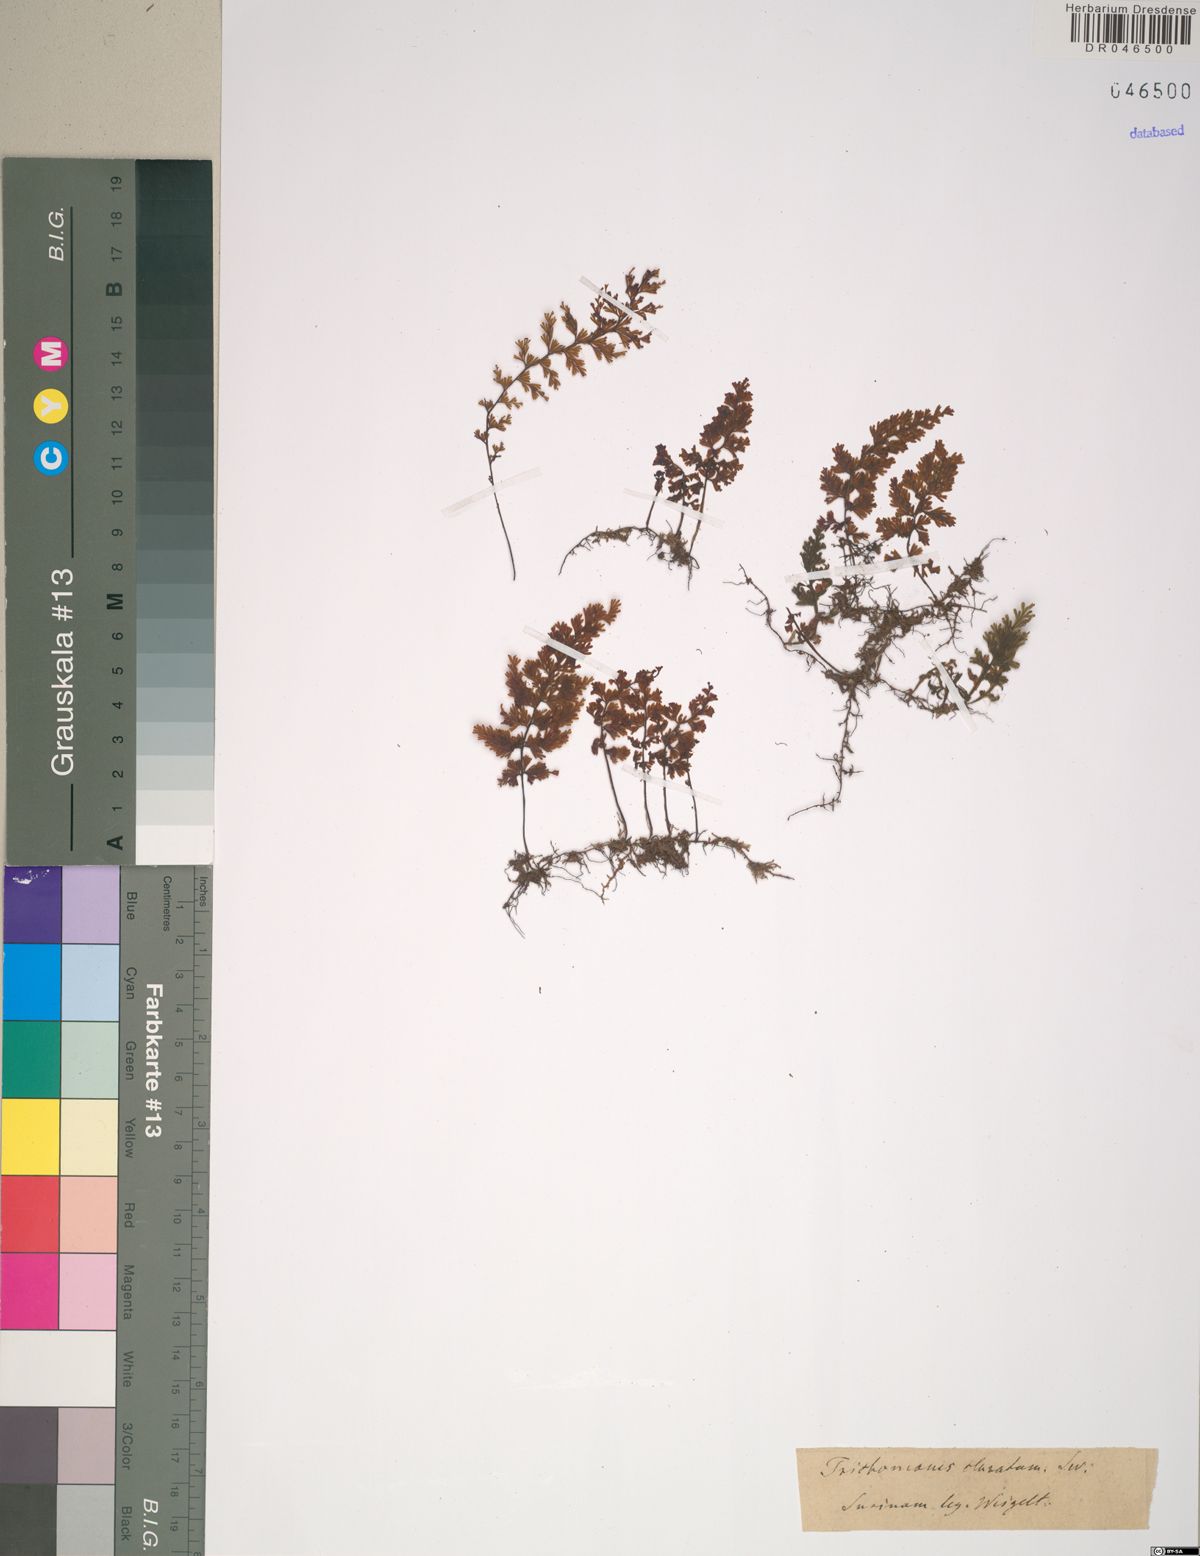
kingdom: Plantae
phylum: Tracheophyta
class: Polypodiopsida
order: Hymenophyllales
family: Hymenophyllaceae
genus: Trichomanes
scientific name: Trichomanes
